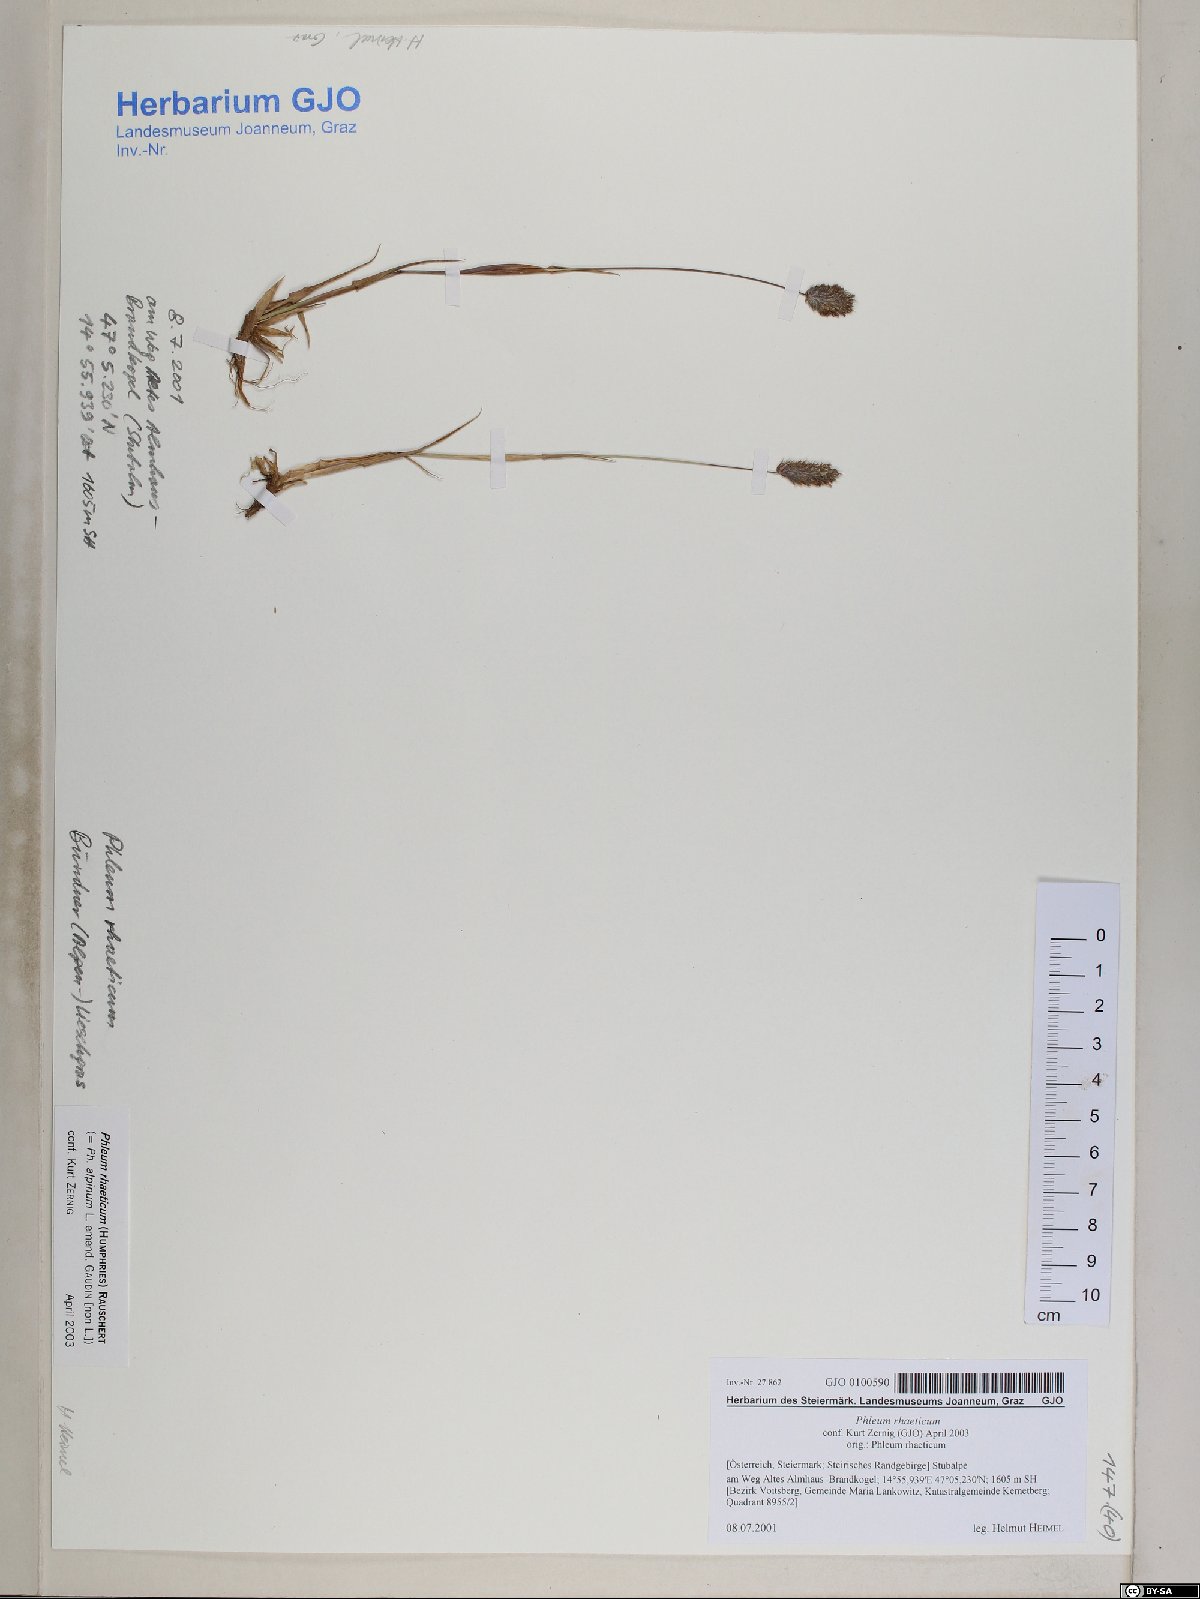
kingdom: Plantae
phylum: Tracheophyta
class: Liliopsida
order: Poales
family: Poaceae
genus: Phleum
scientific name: Phleum alpinum
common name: Alpine cat's-tail
